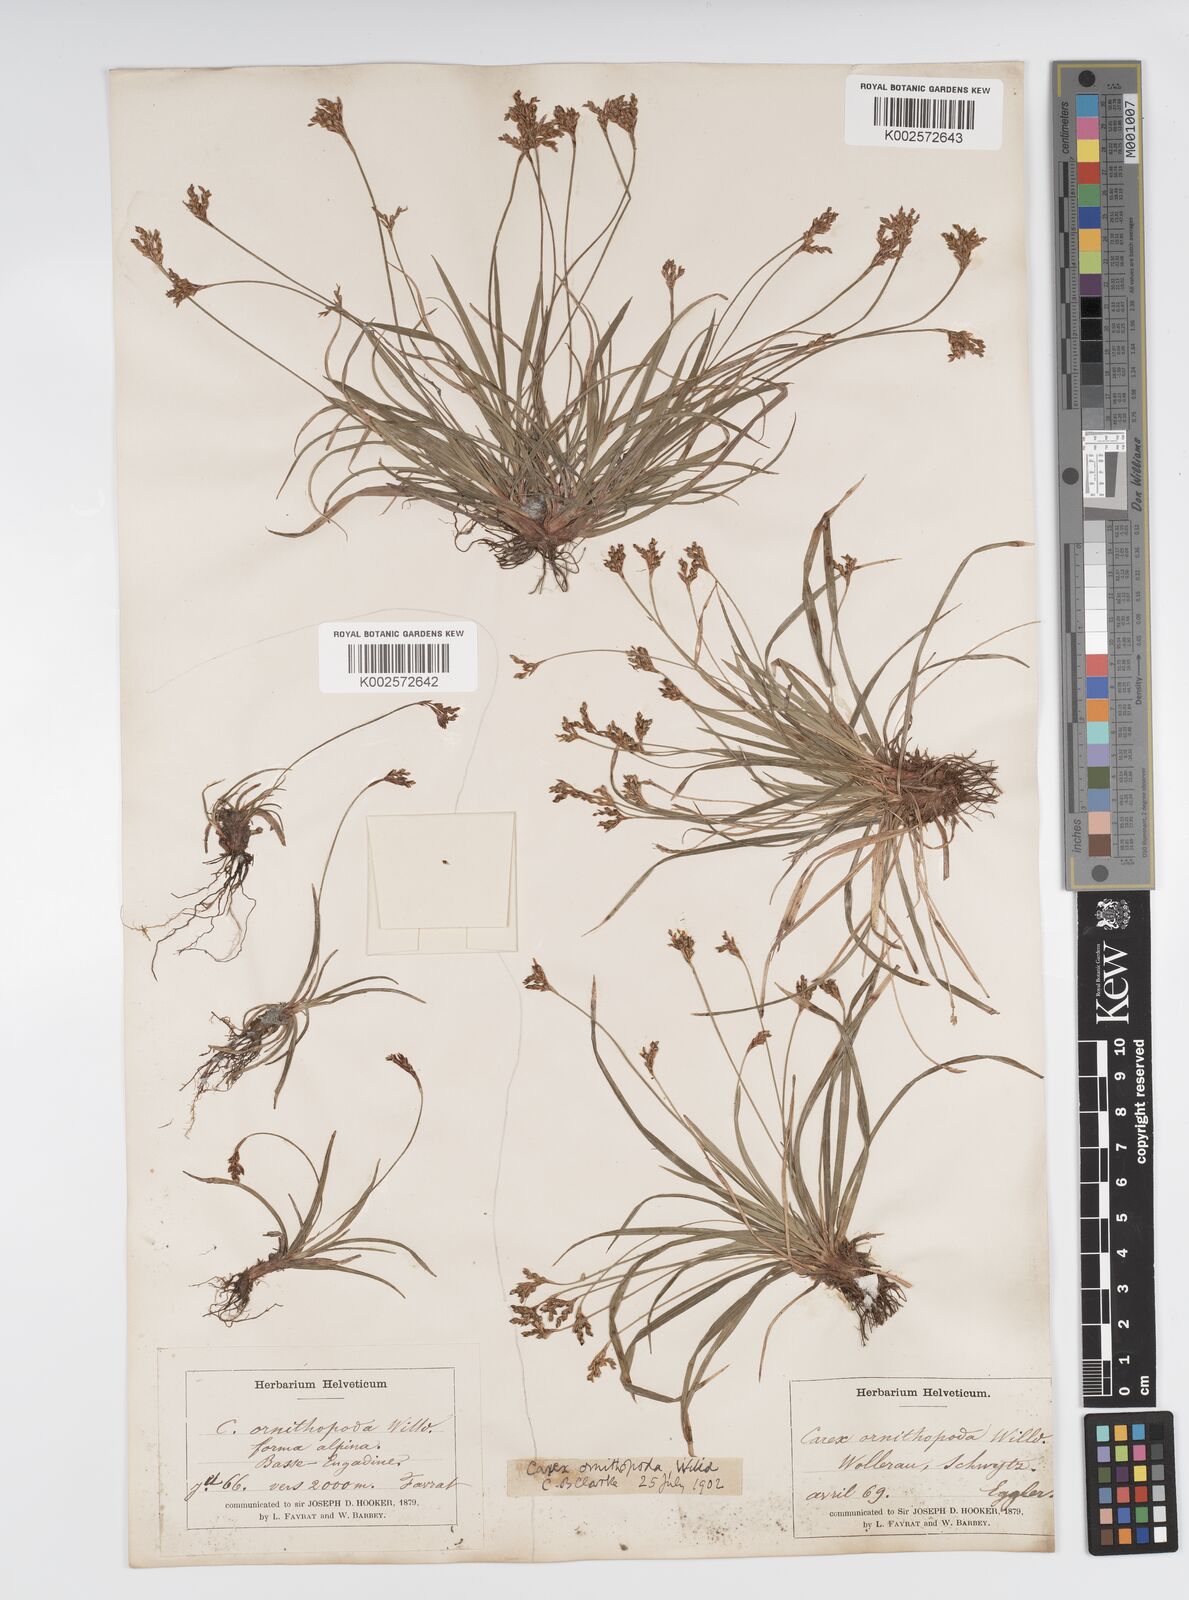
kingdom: Plantae
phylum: Tracheophyta
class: Liliopsida
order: Poales
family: Cyperaceae
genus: Carex
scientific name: Carex ornithopoda
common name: Bird's-foot sedge
